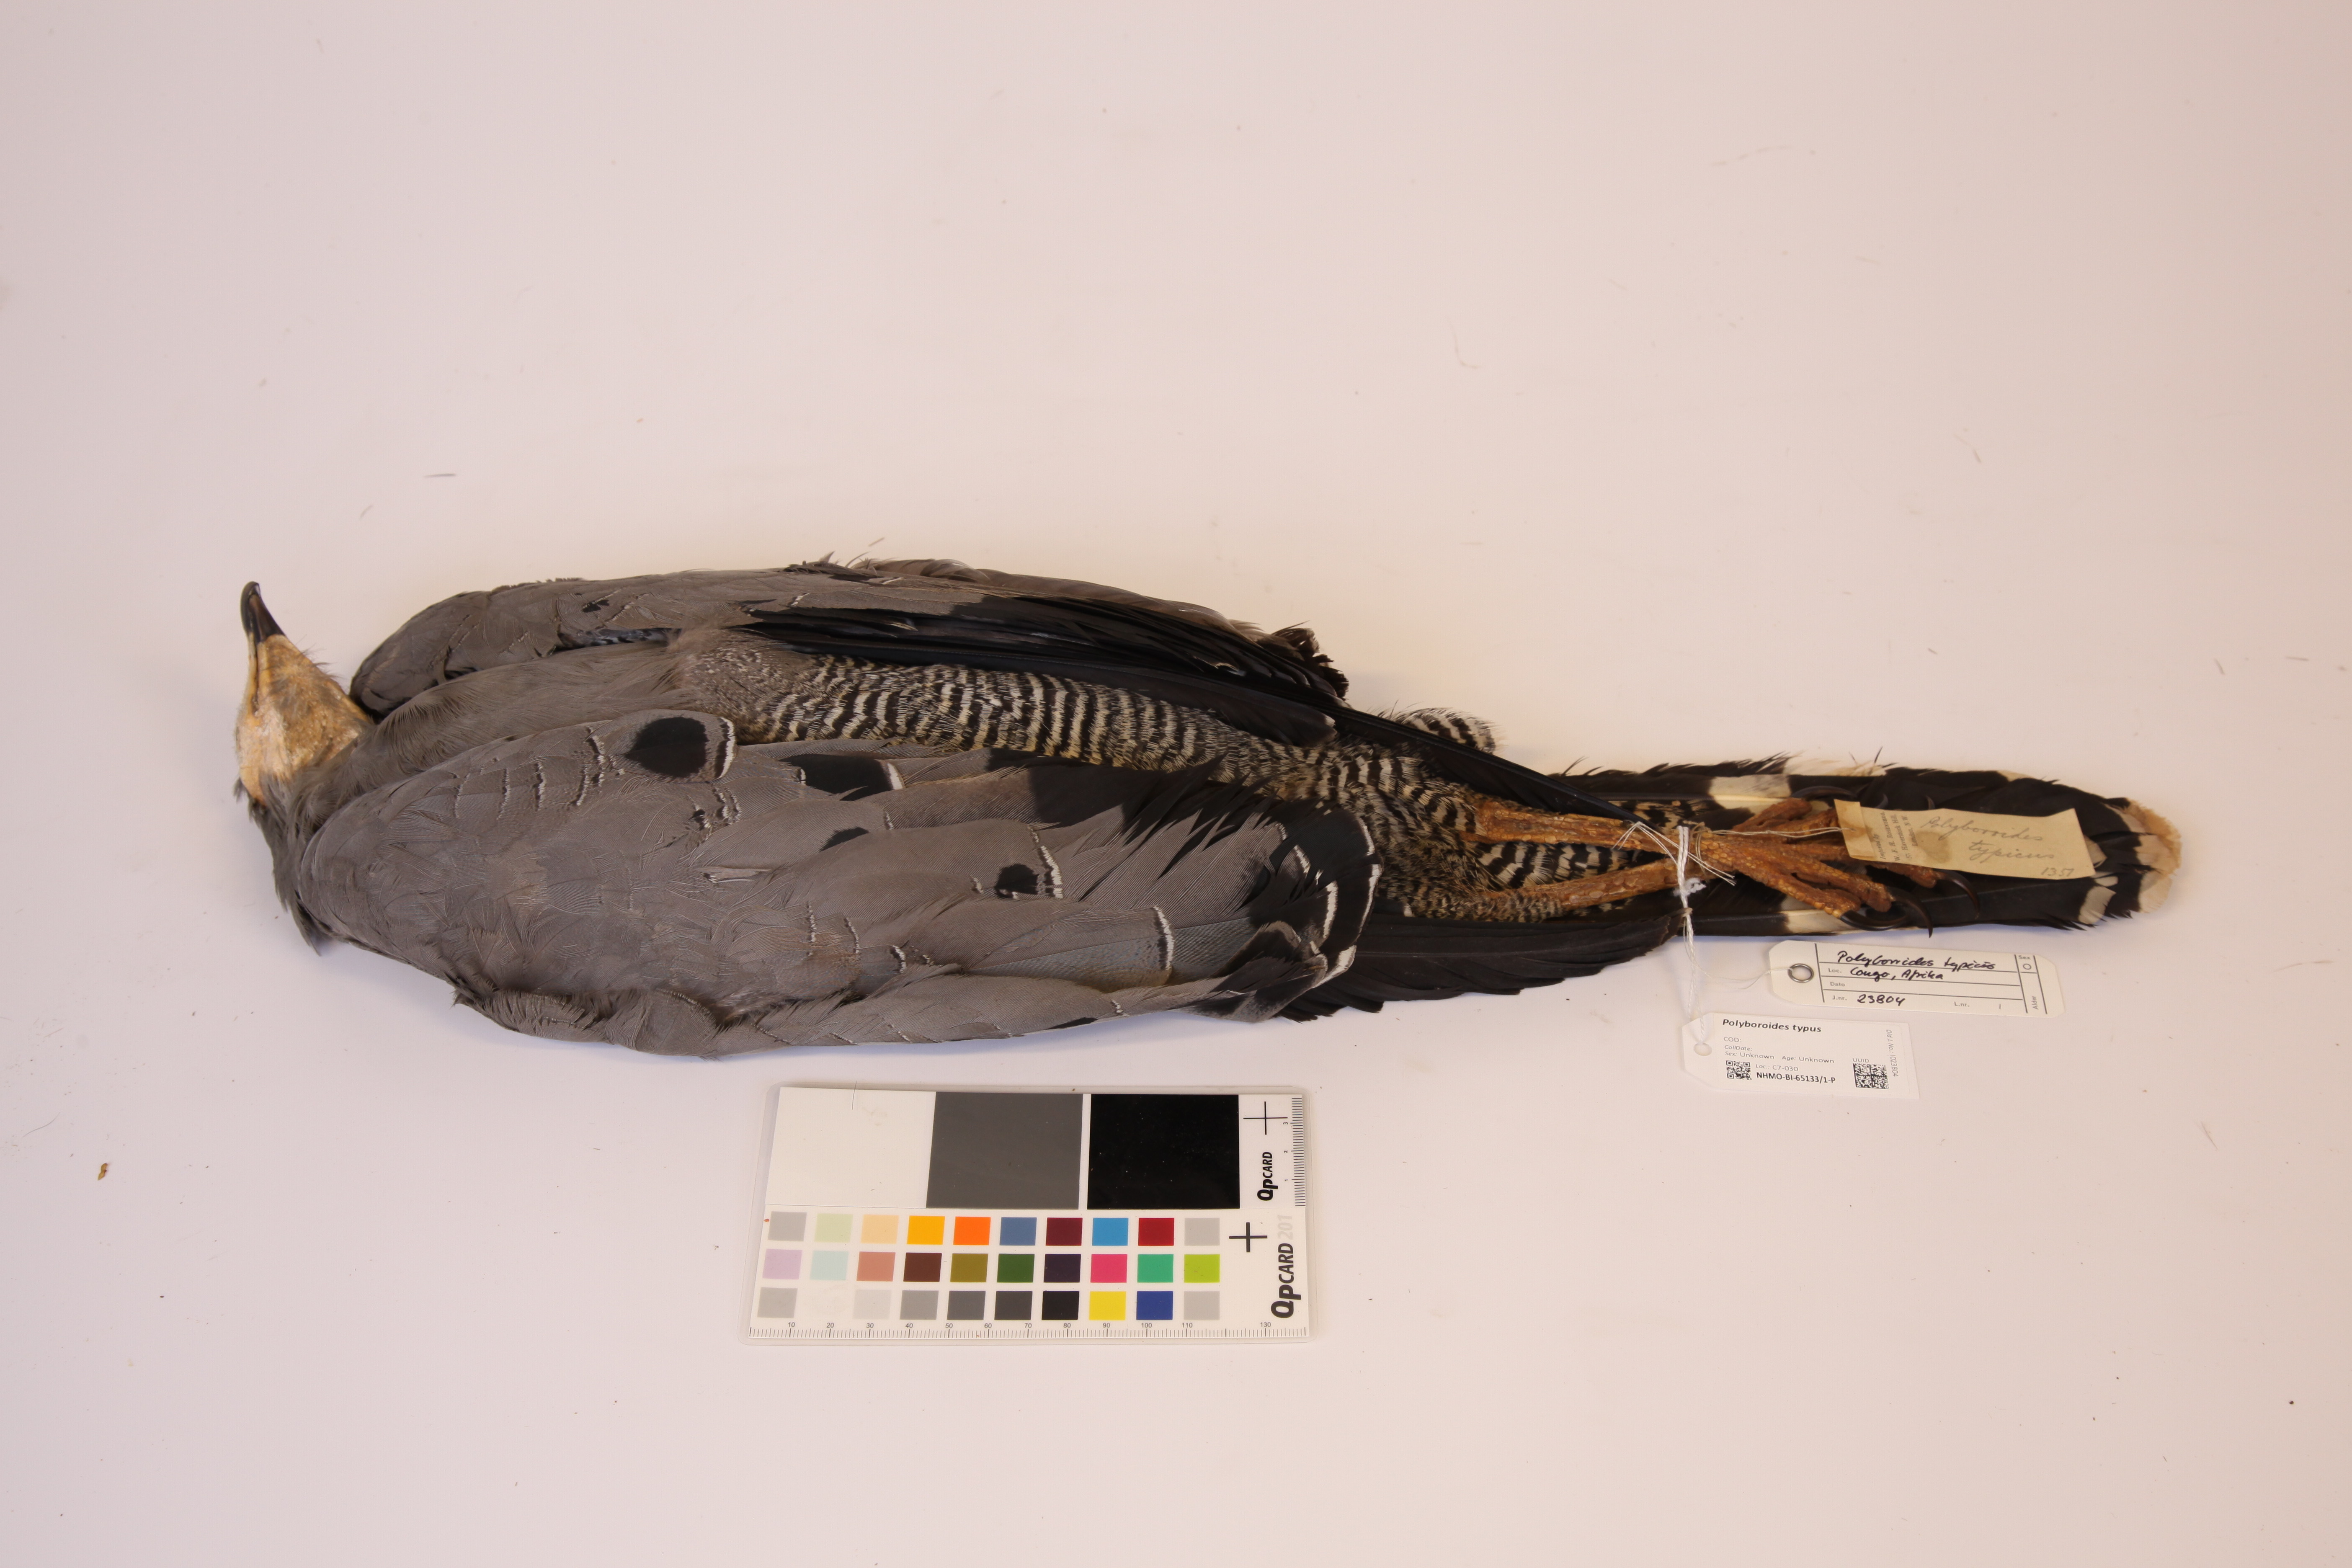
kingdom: Animalia
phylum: Chordata
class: Aves
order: Accipitriformes
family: Accipitridae
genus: Polyboroides
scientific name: Polyboroides typus
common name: African harrier-hawk
